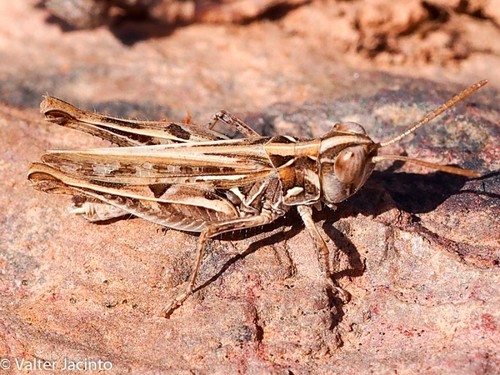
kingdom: Animalia
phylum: Arthropoda
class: Insecta
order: Orthoptera
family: Acrididae
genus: Dociostaurus
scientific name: Dociostaurus jagoi
